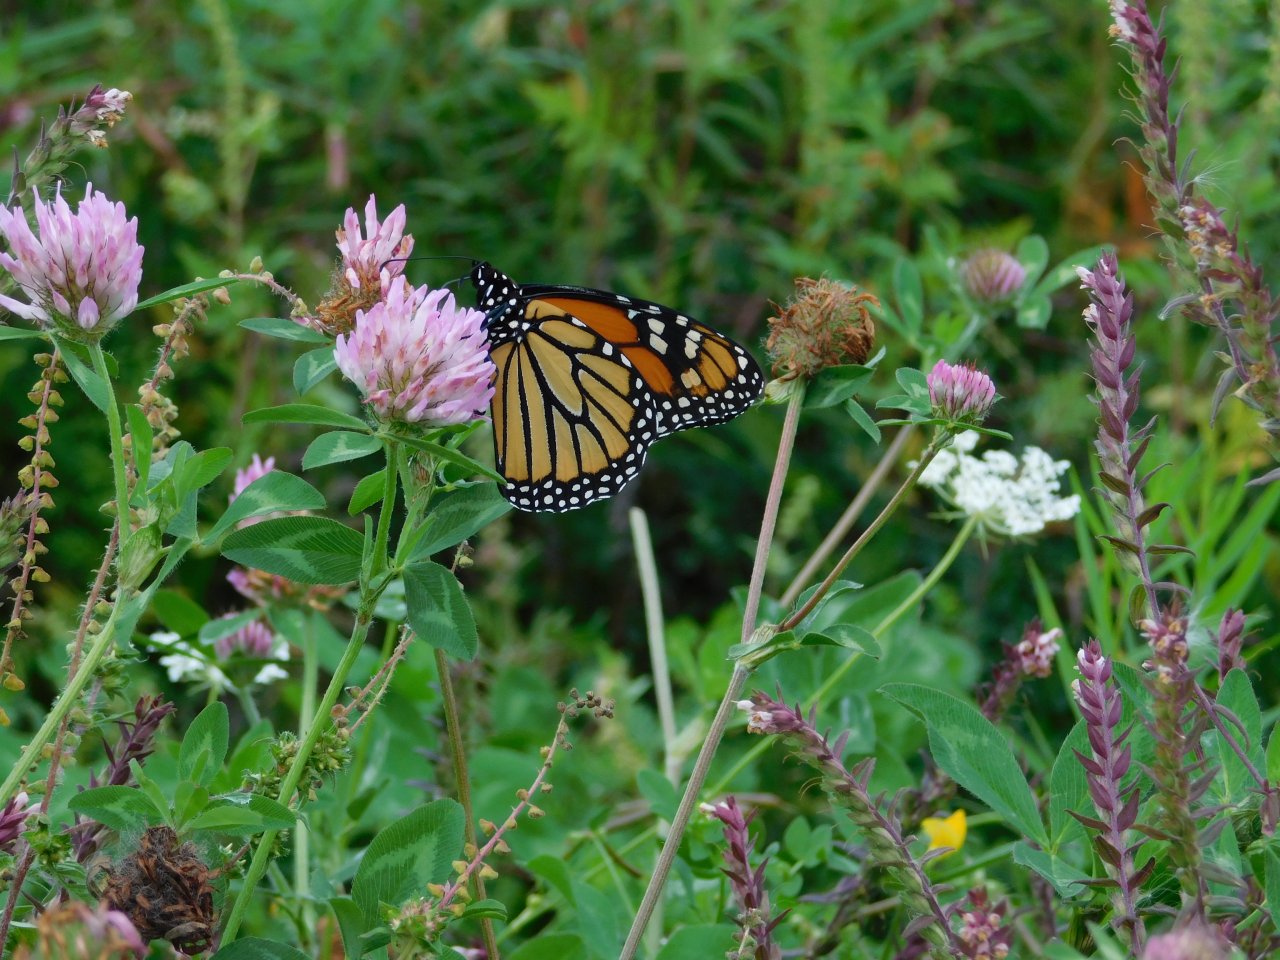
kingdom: Animalia
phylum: Arthropoda
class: Insecta
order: Lepidoptera
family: Nymphalidae
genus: Danaus
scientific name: Danaus plexippus
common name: Monarch
